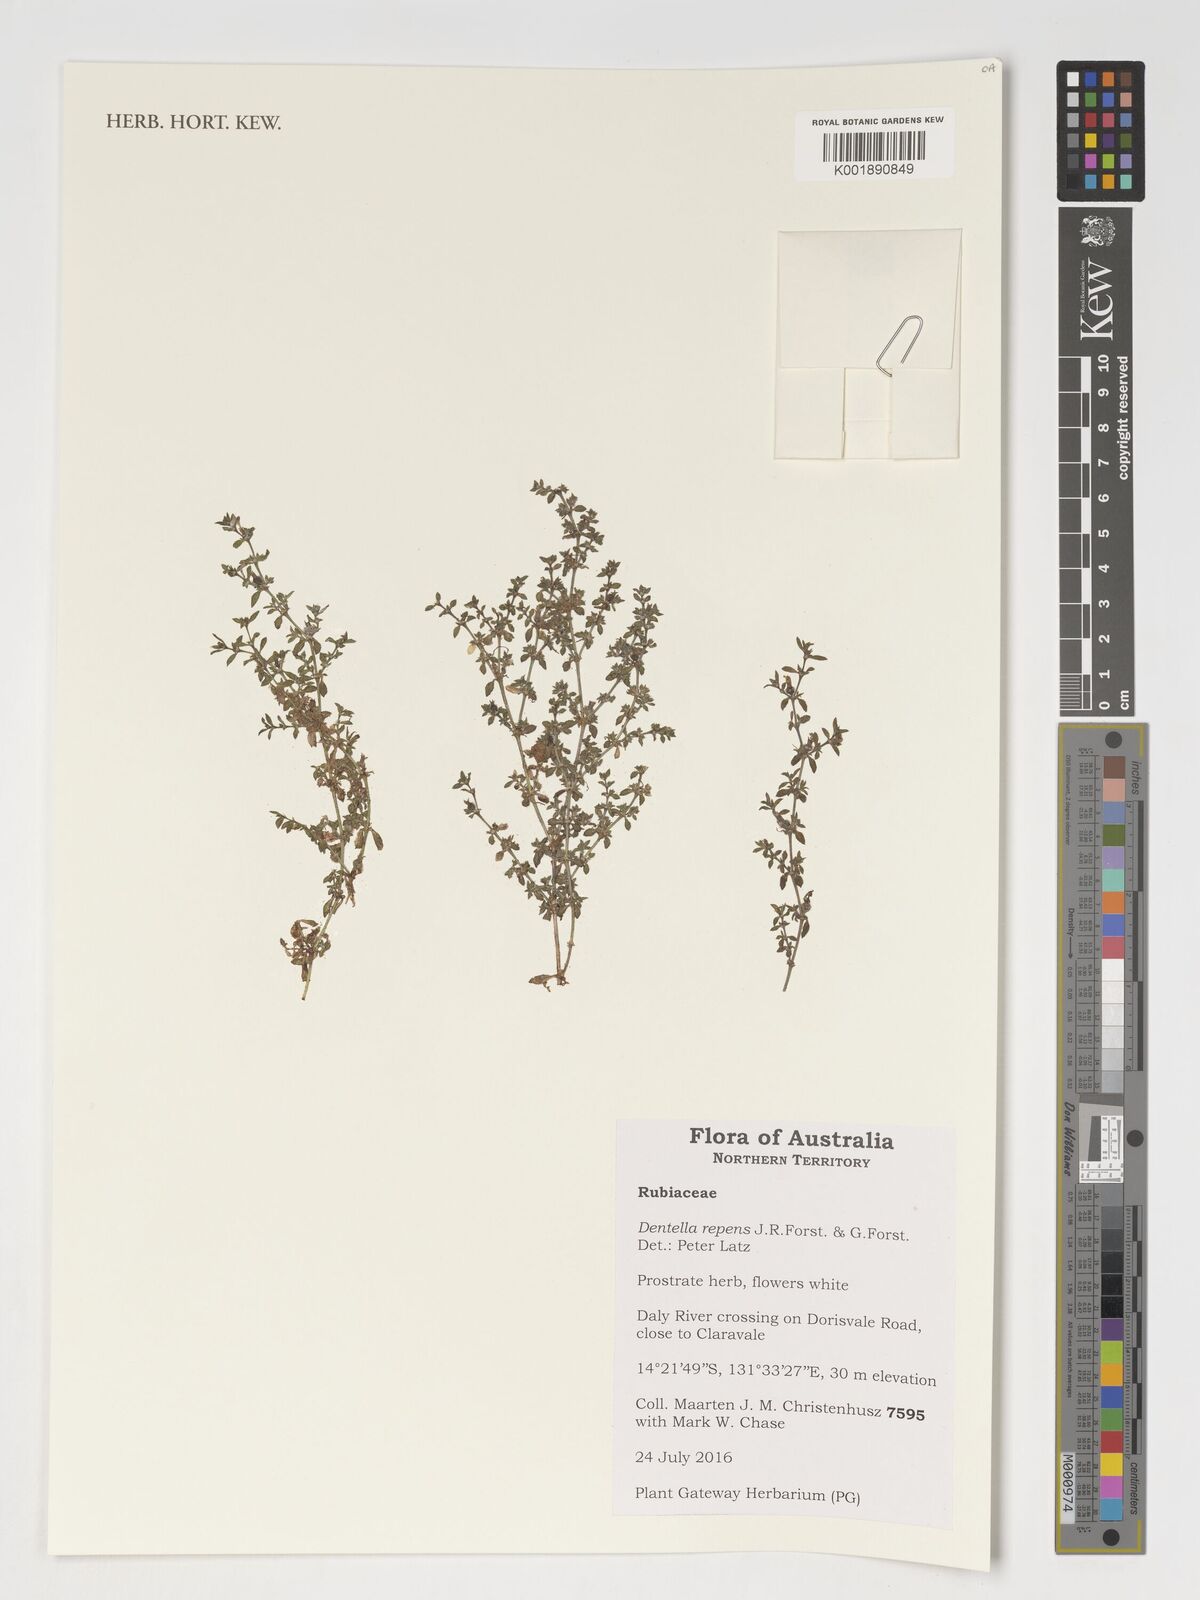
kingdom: Plantae
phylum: Tracheophyta
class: Magnoliopsida
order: Gentianales
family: Rubiaceae
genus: Dentella
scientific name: Dentella repens
